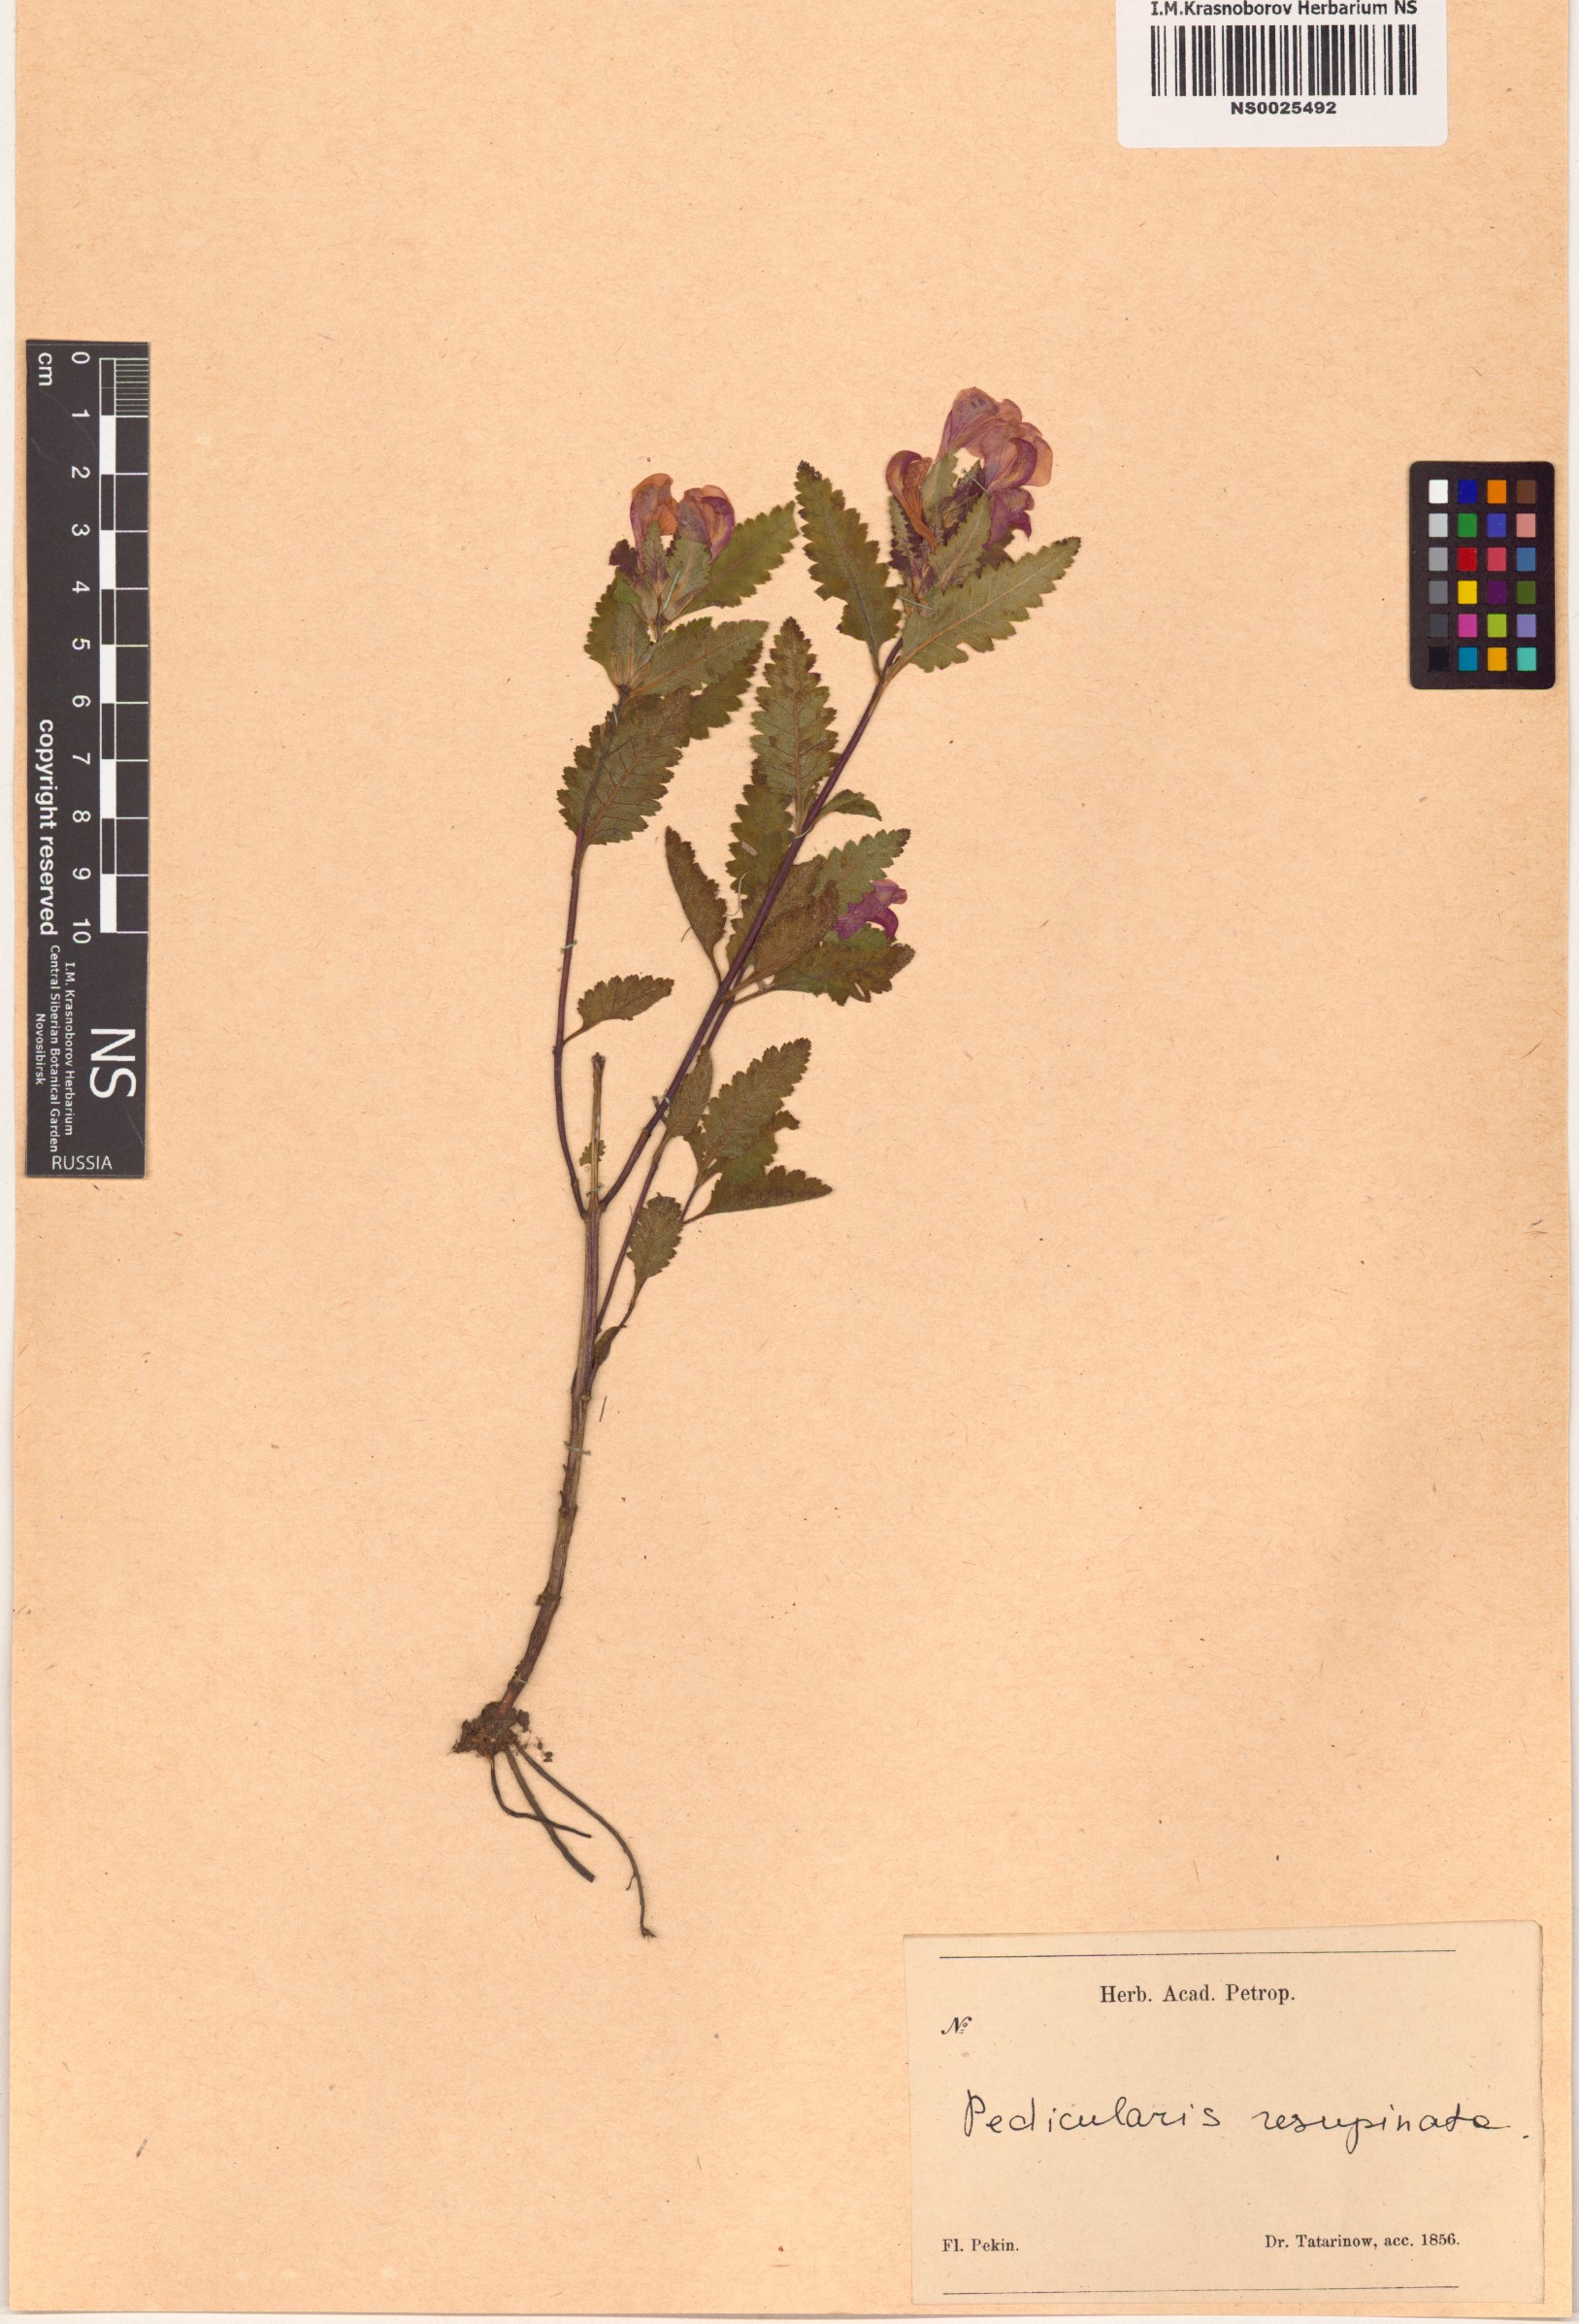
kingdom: Plantae
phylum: Tracheophyta
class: Magnoliopsida
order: Lamiales
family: Orobanchaceae
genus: Pedicularis
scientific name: Pedicularis resupinata
